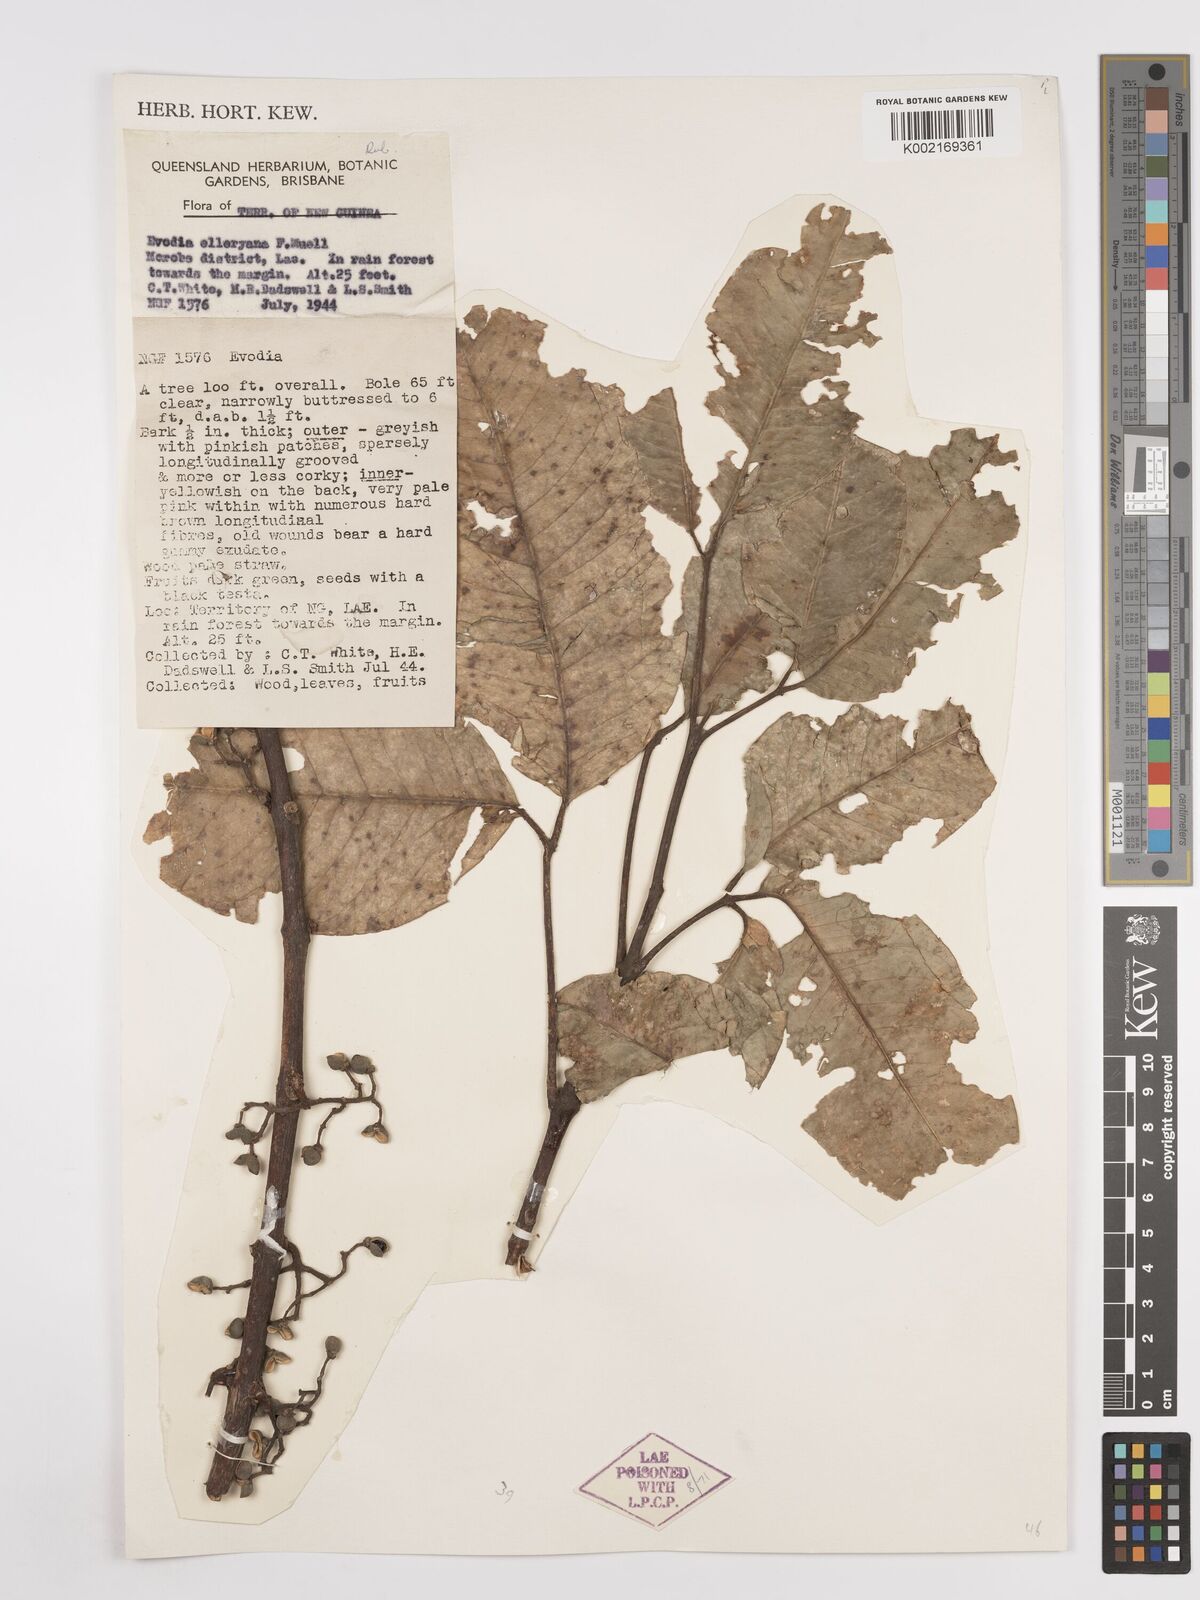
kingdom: Plantae
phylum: Tracheophyta
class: Magnoliopsida
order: Sapindales
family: Rutaceae
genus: Melicope
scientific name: Melicope elleryana
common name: Pink euodia
